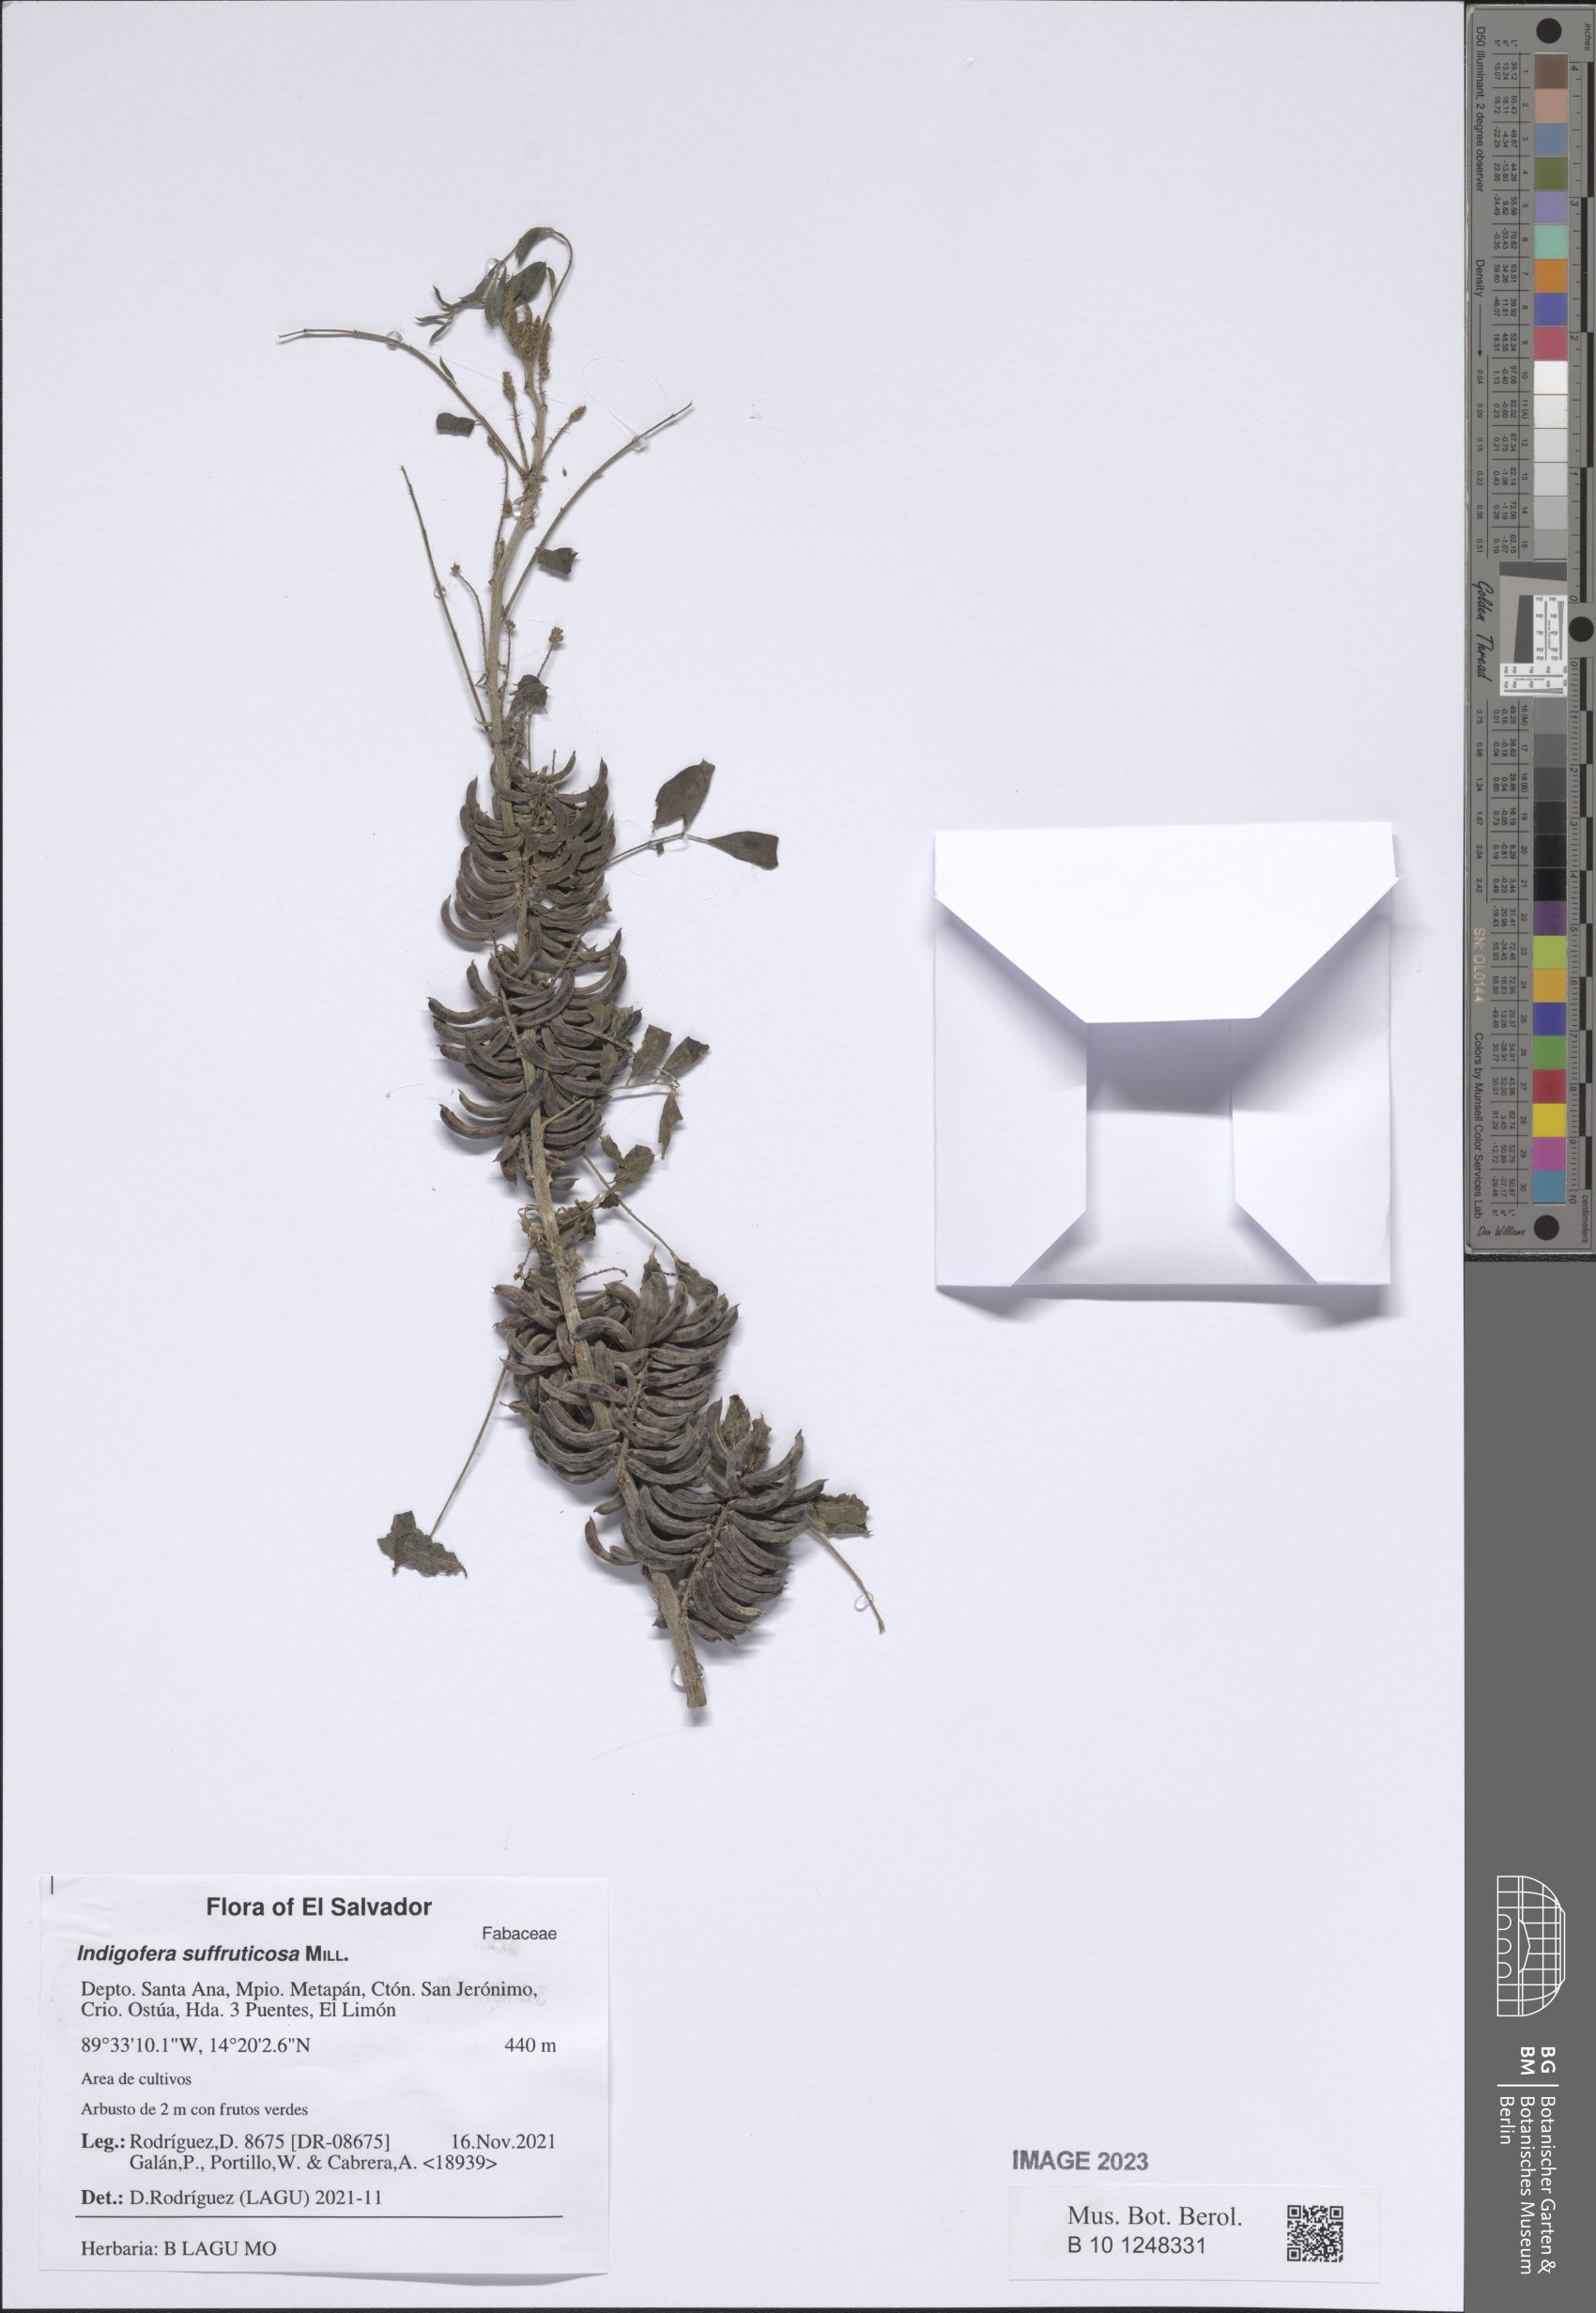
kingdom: Plantae
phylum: Tracheophyta
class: Magnoliopsida
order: Fabales
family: Fabaceae
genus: Indigofera
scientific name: Indigofera suffruticosa
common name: Anil de pasto
